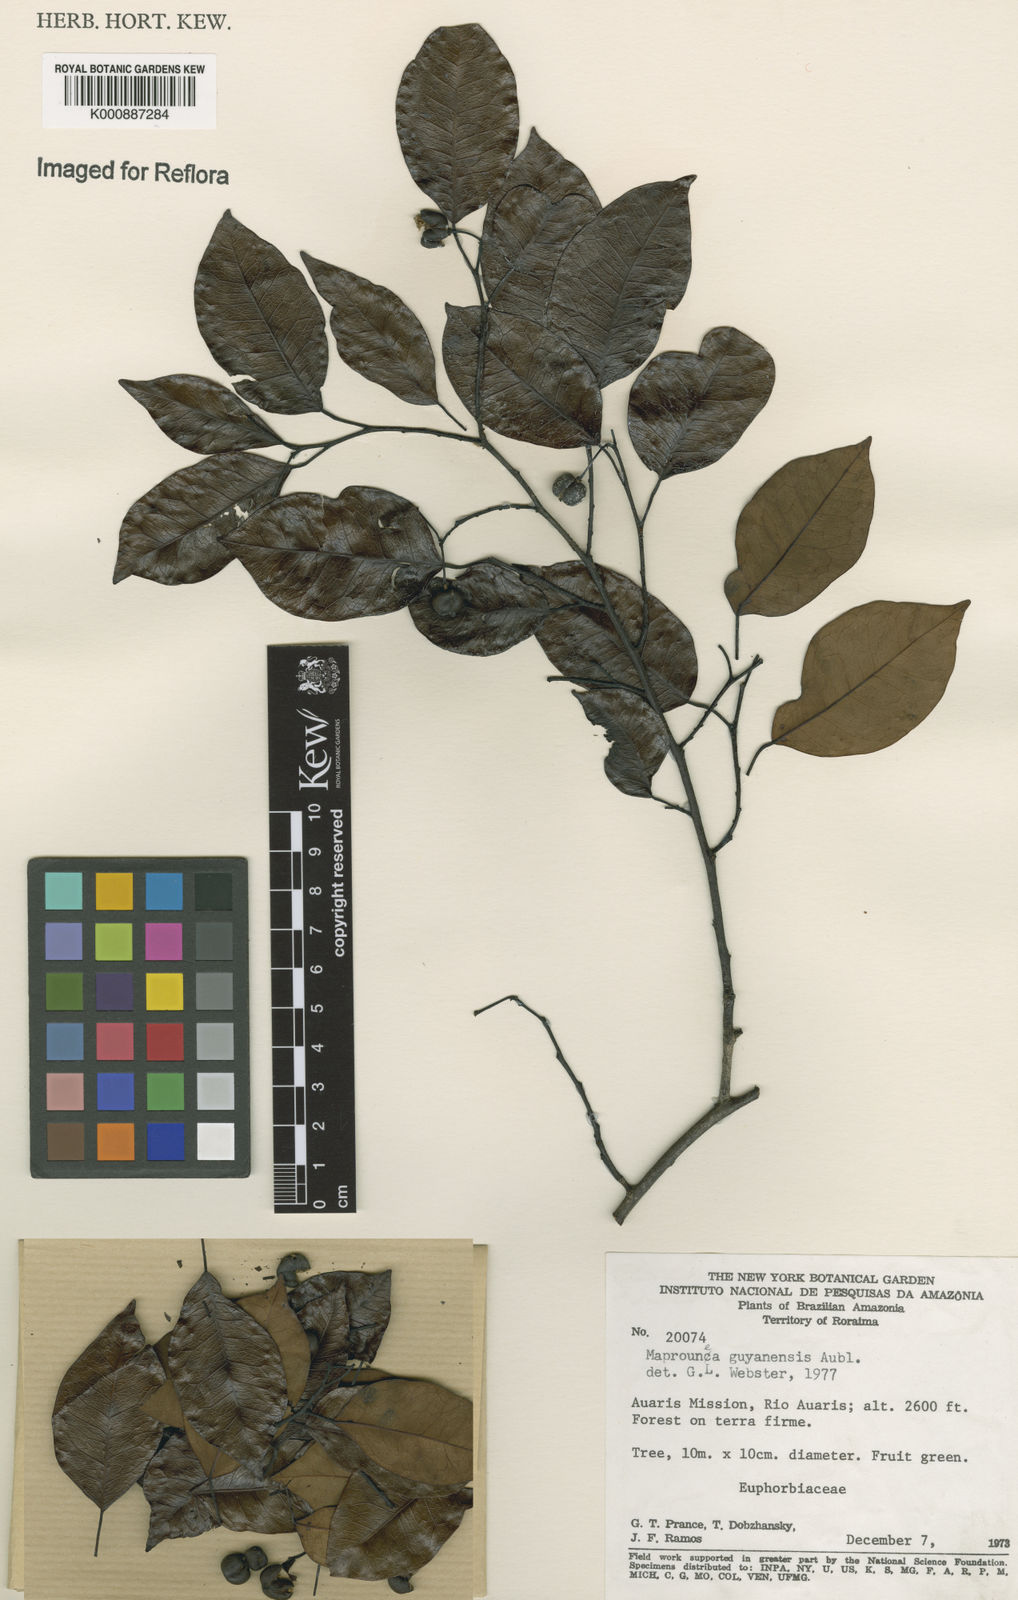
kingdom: Plantae
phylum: Tracheophyta
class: Magnoliopsida
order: Malpighiales
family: Euphorbiaceae
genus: Maprounea
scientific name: Maprounea guianensis
